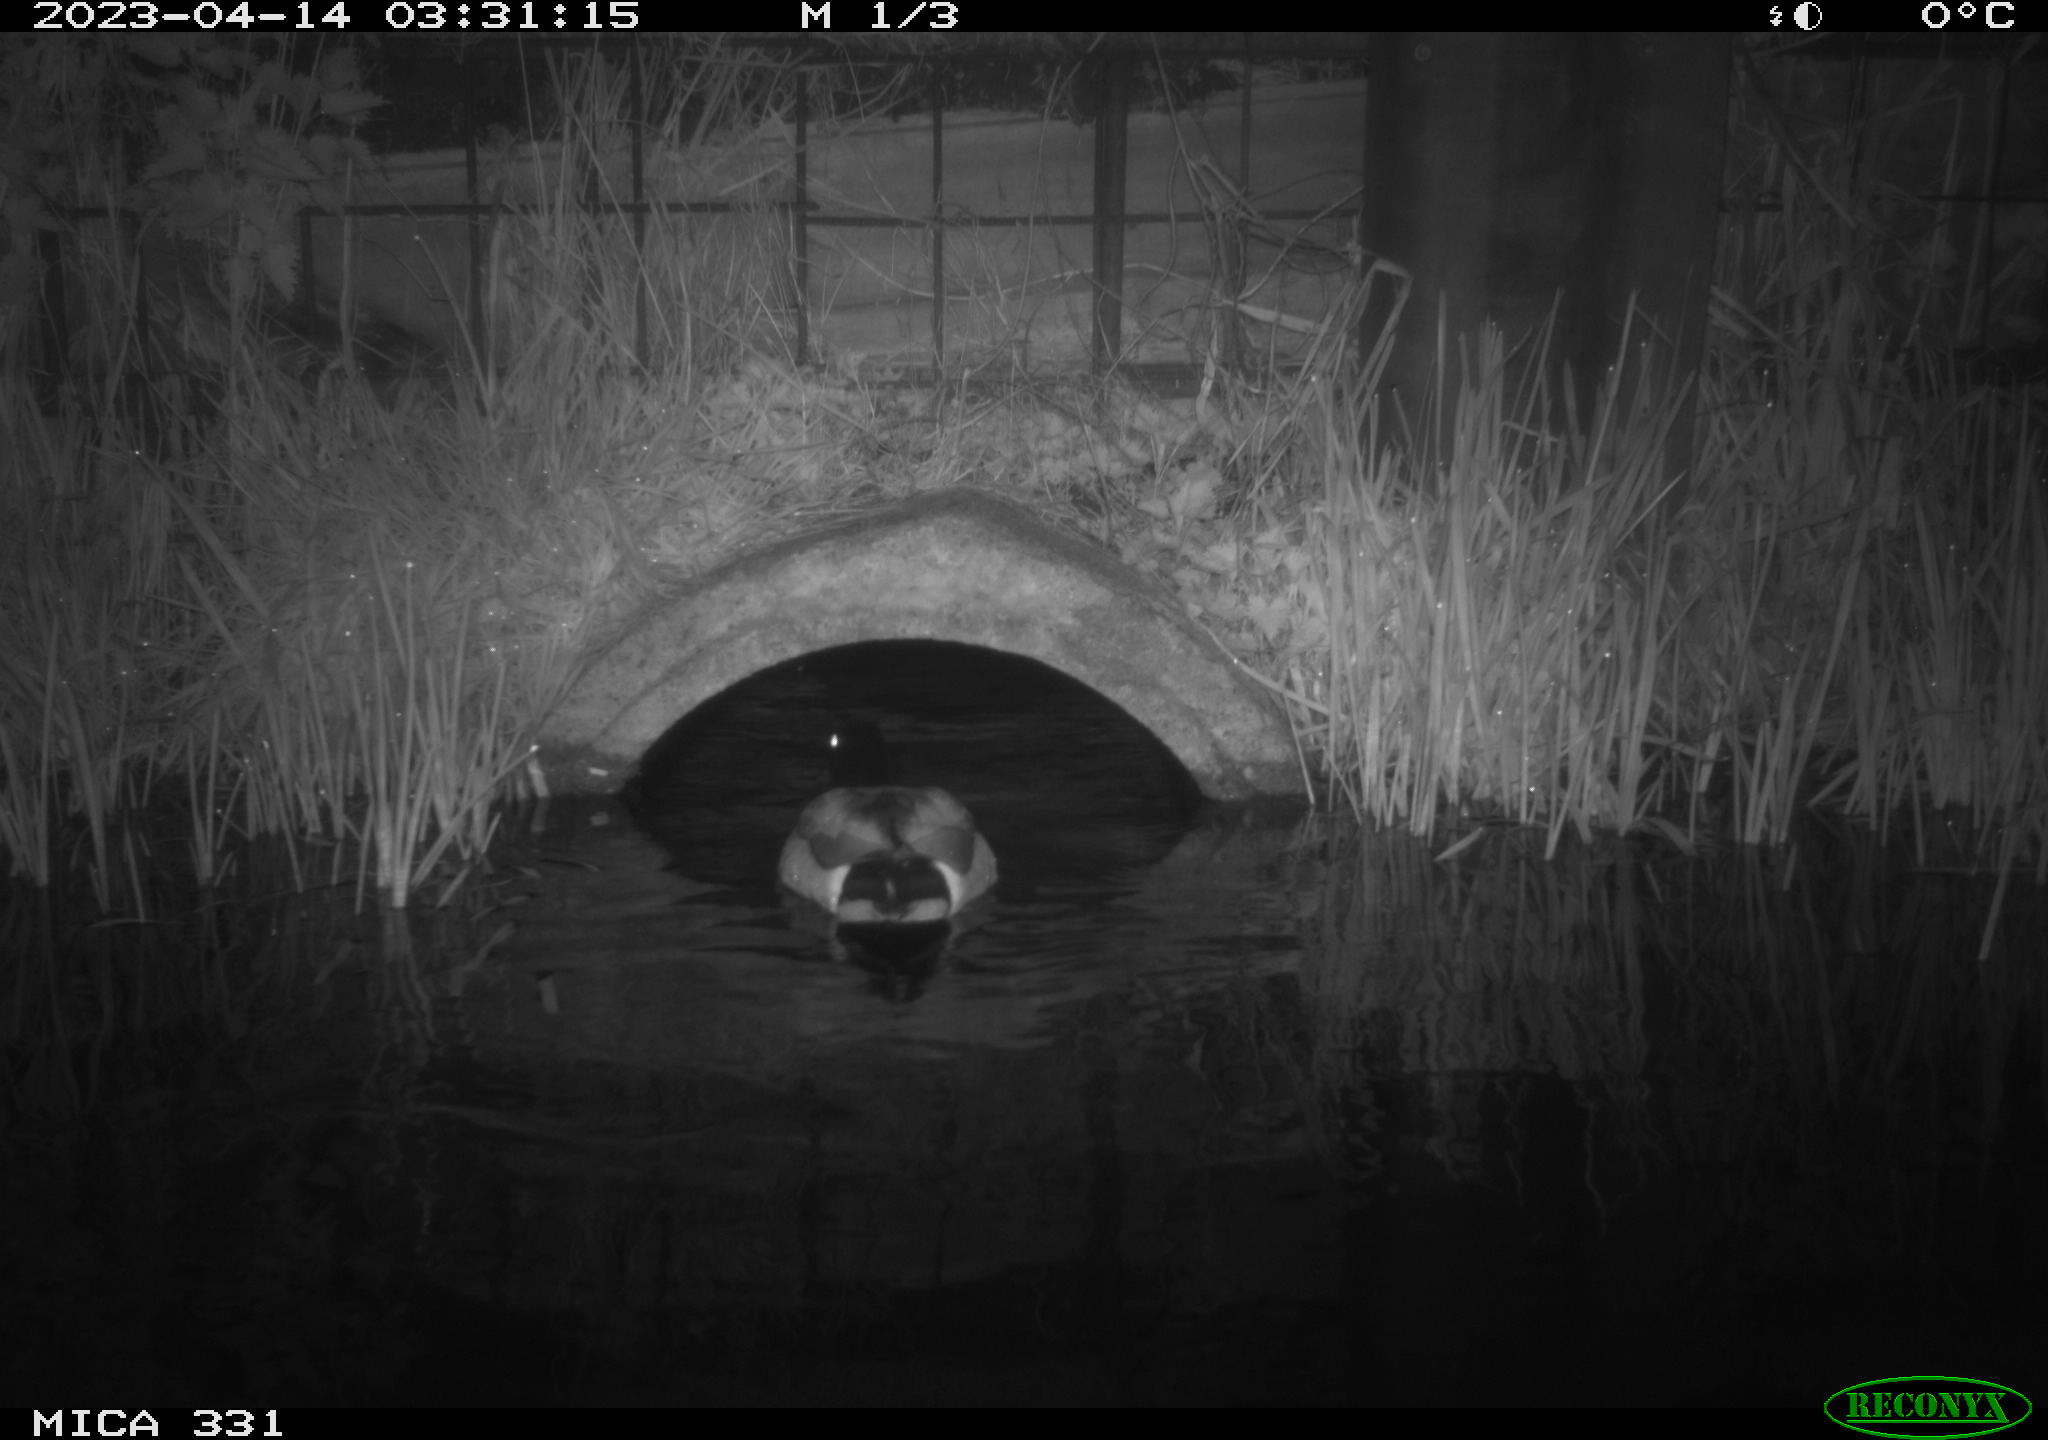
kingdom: Animalia
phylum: Chordata
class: Aves
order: Anseriformes
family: Anatidae
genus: Anas
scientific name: Anas
